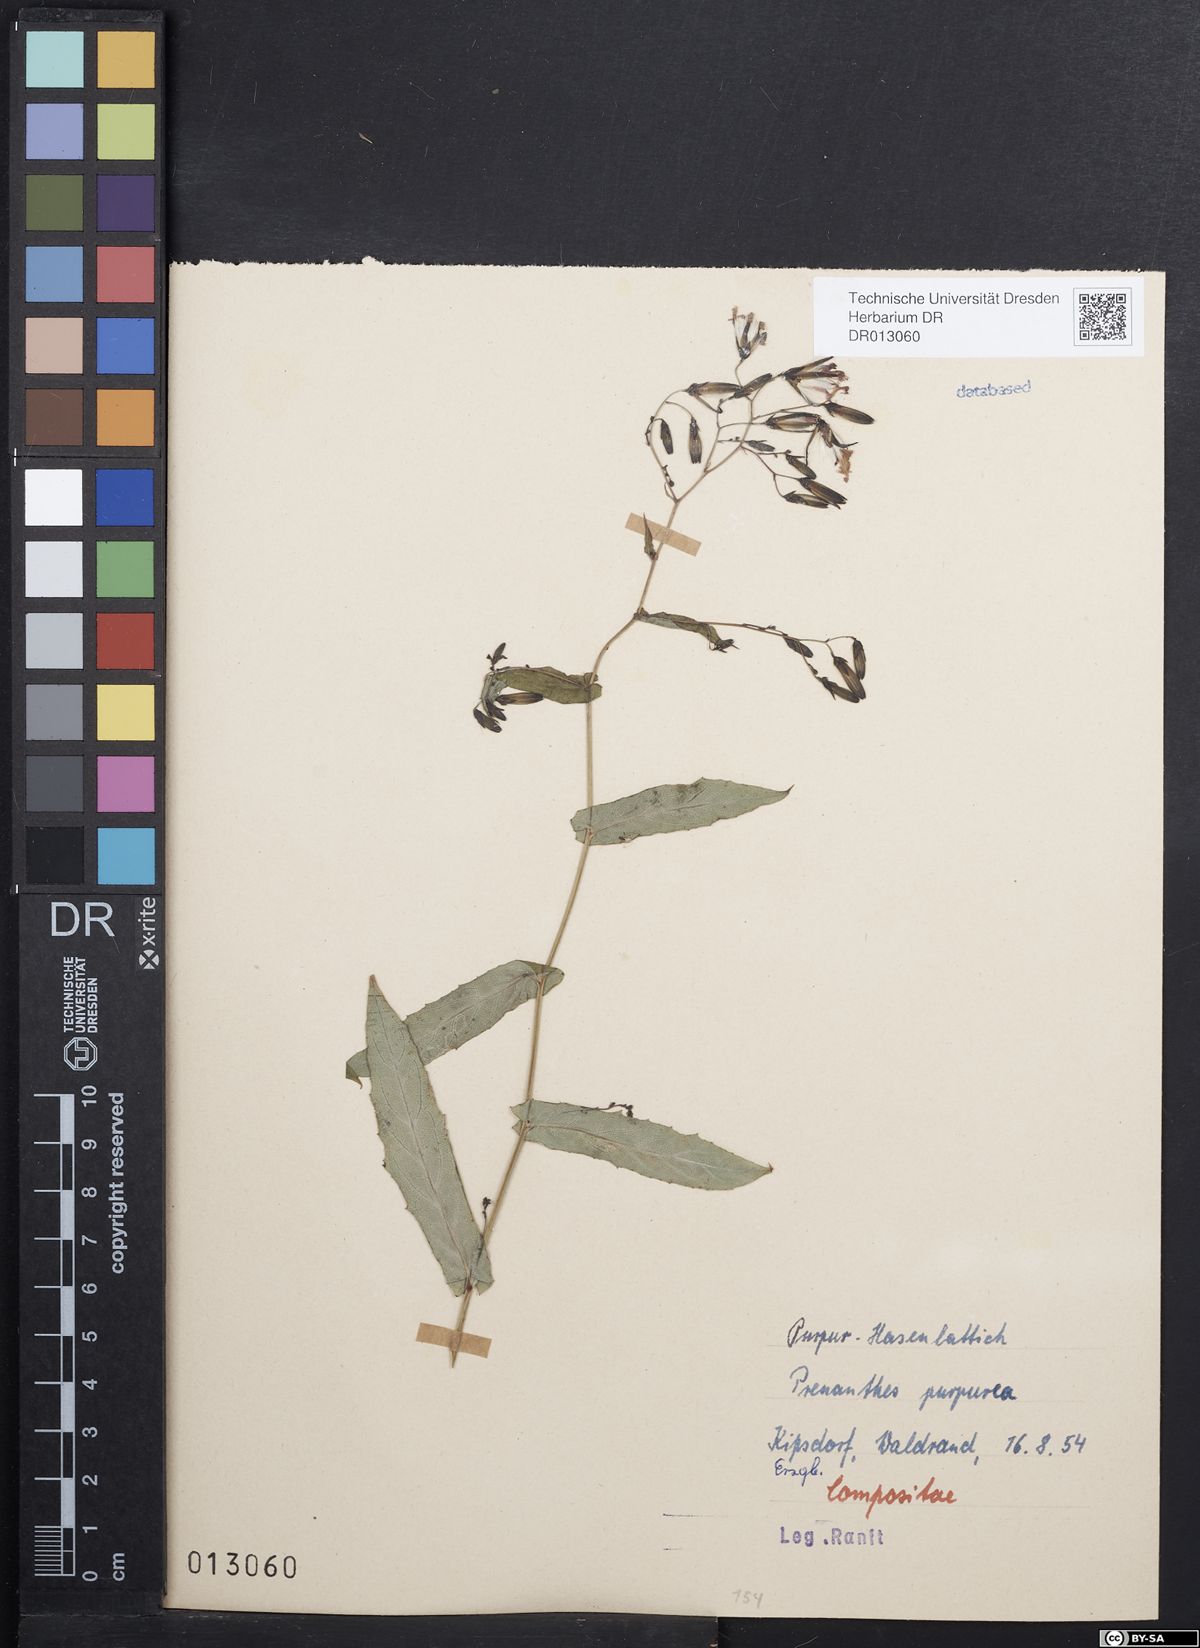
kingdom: Plantae
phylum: Tracheophyta
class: Magnoliopsida
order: Asterales
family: Asteraceae
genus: Prenanthes
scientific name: Prenanthes purpurea
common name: Purple lettuce
